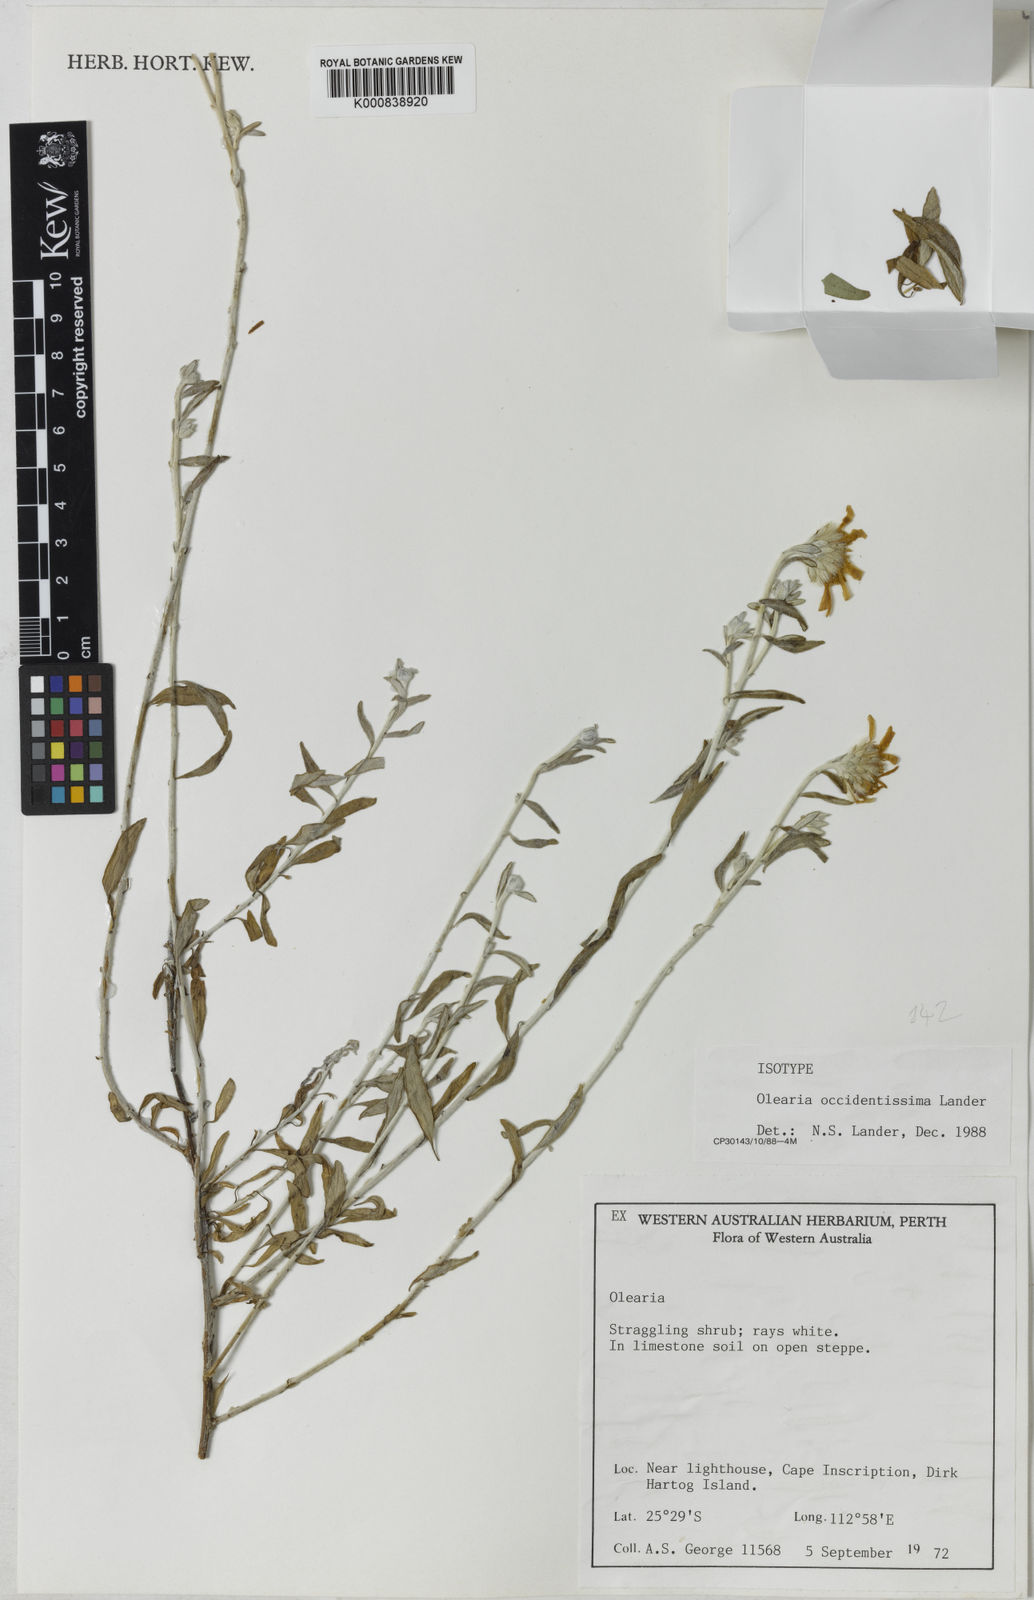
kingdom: Plantae
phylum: Tracheophyta
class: Magnoliopsida
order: Asterales
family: Asteraceae
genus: Olearia
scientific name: Olearia occidentissima
